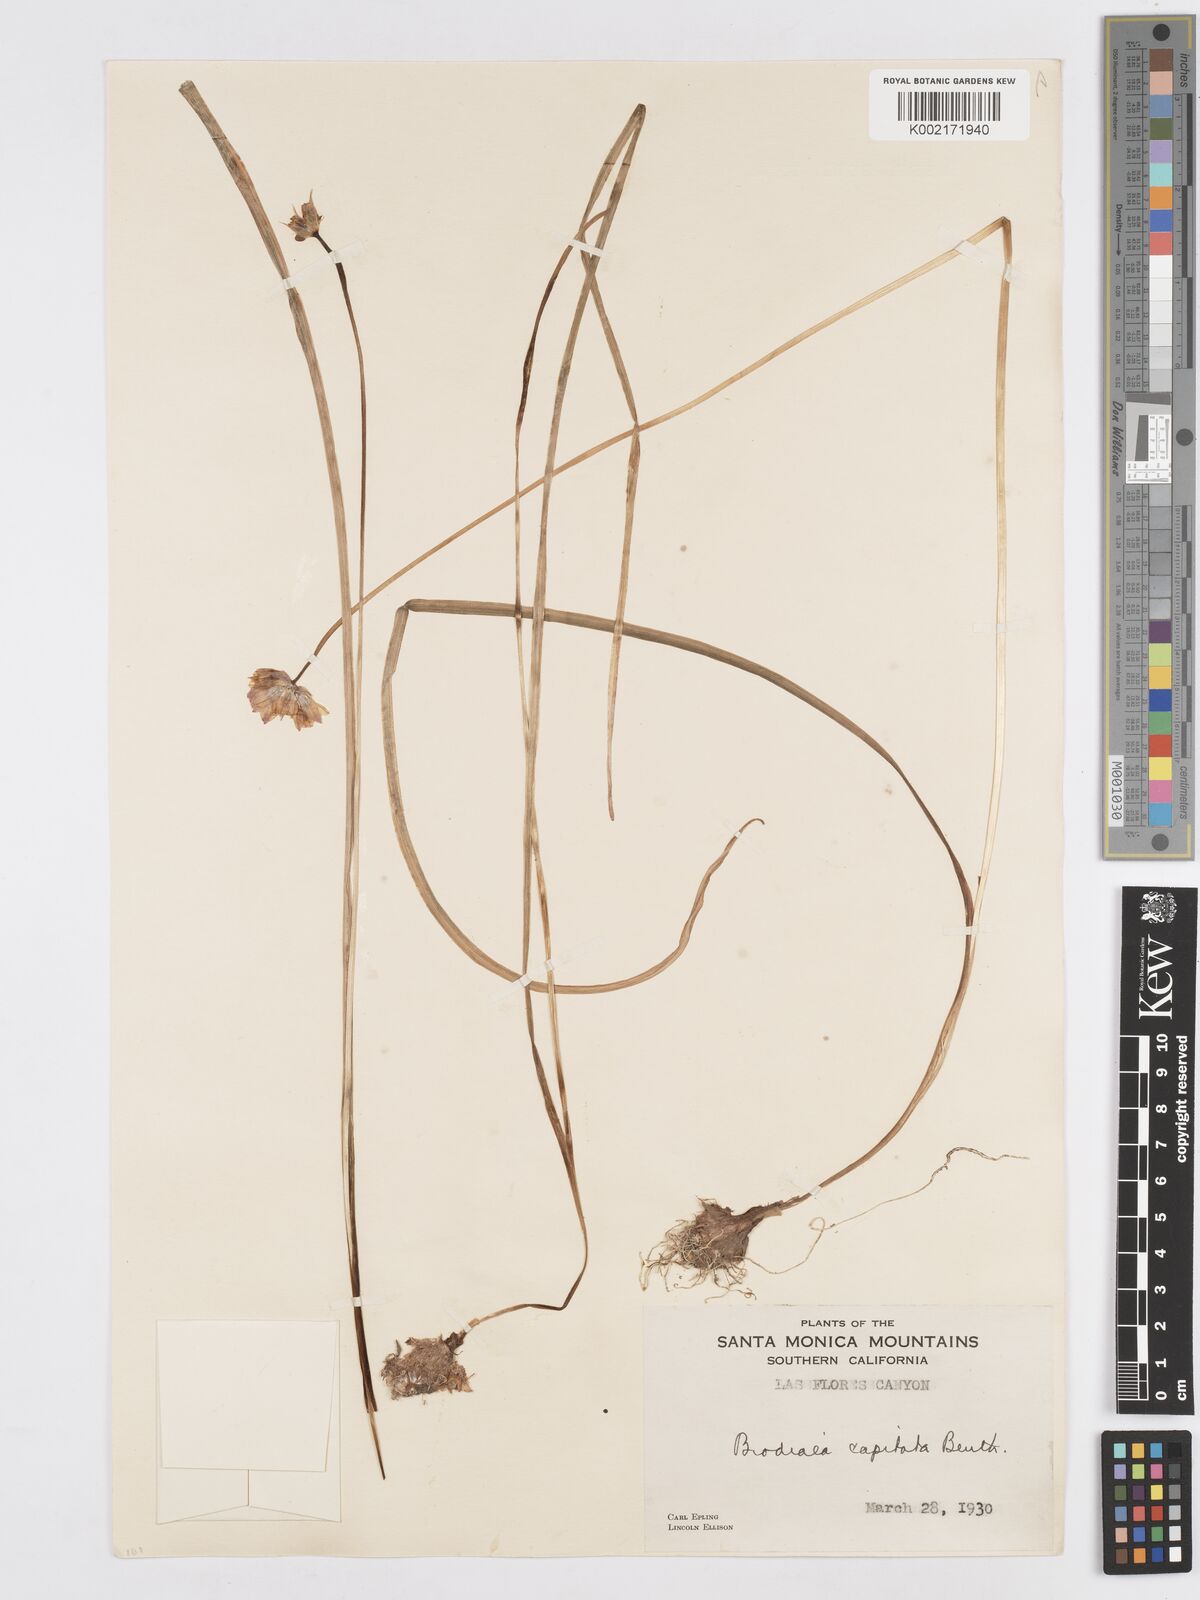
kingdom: Plantae
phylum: Tracheophyta
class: Liliopsida
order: Asparagales
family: Asparagaceae
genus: Dichelostemma
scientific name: Dichelostemma congestum
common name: Fork-tooth ookow
